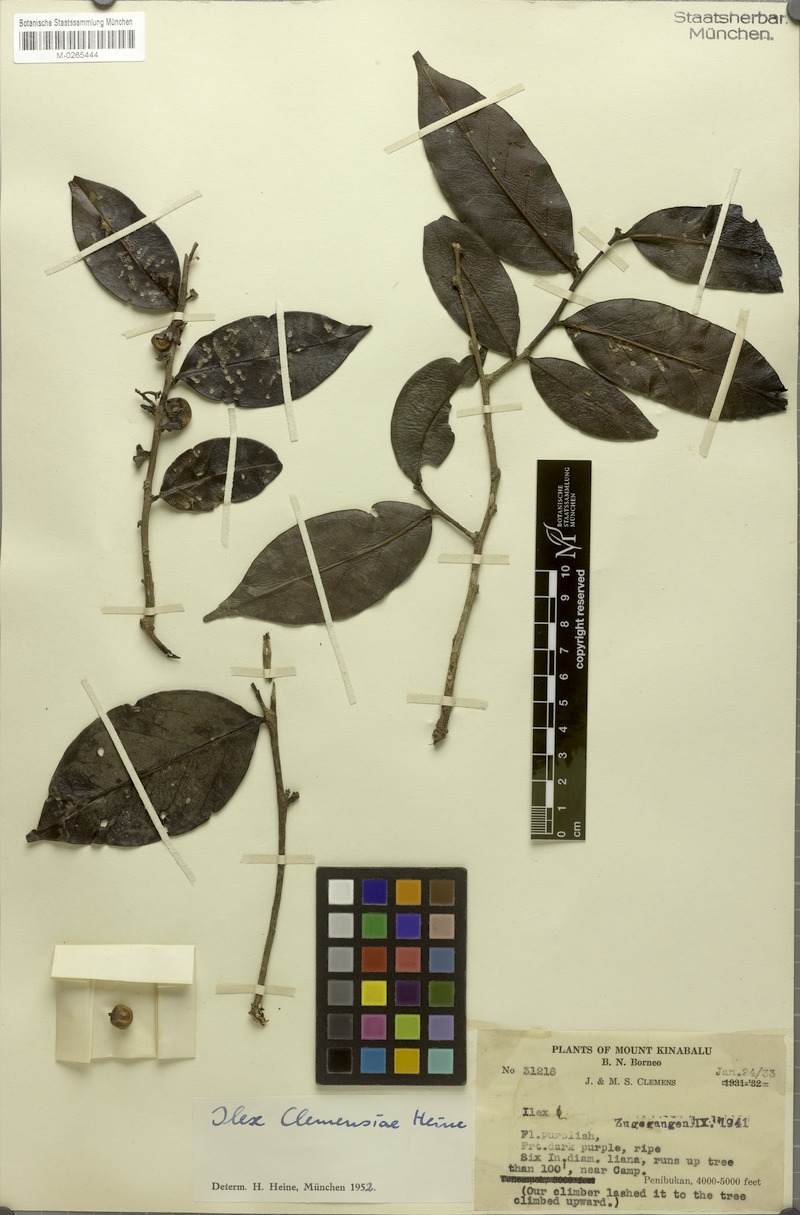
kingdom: Plantae
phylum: Tracheophyta
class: Magnoliopsida
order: Aquifoliales
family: Aquifoliaceae
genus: Ilex
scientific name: Ilex clemensiae
